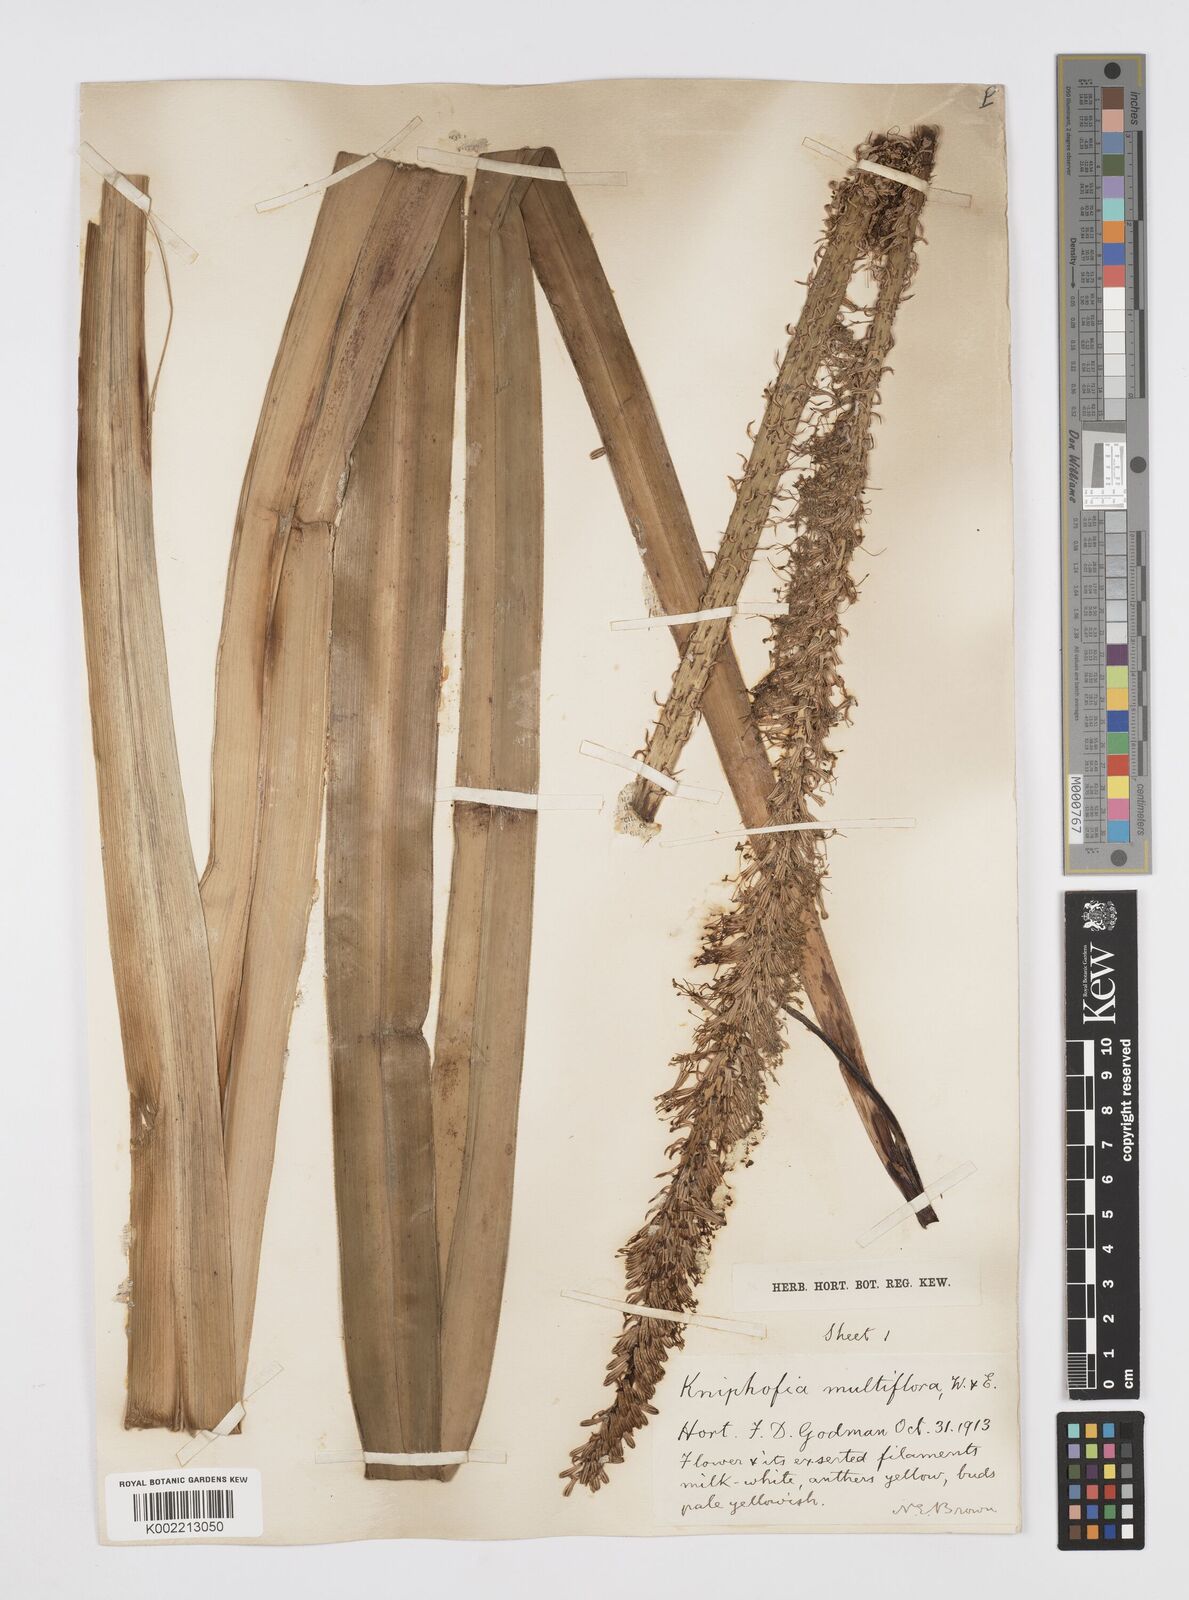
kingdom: Plantae
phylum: Tracheophyta
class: Liliopsida
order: Asparagales
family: Asphodelaceae
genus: Kniphofia
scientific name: Kniphofia multiflora
